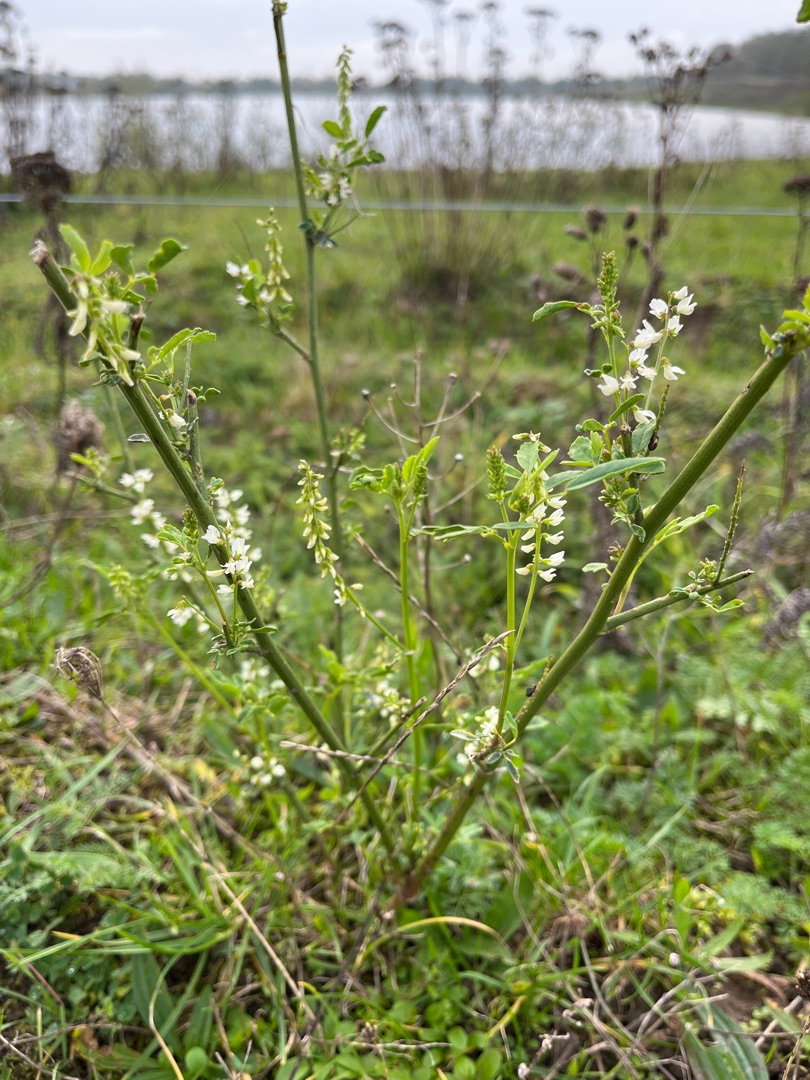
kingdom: Plantae
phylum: Tracheophyta
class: Magnoliopsida
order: Fabales
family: Fabaceae
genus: Melilotus
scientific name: Melilotus albus
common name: Hvid stenkløver
